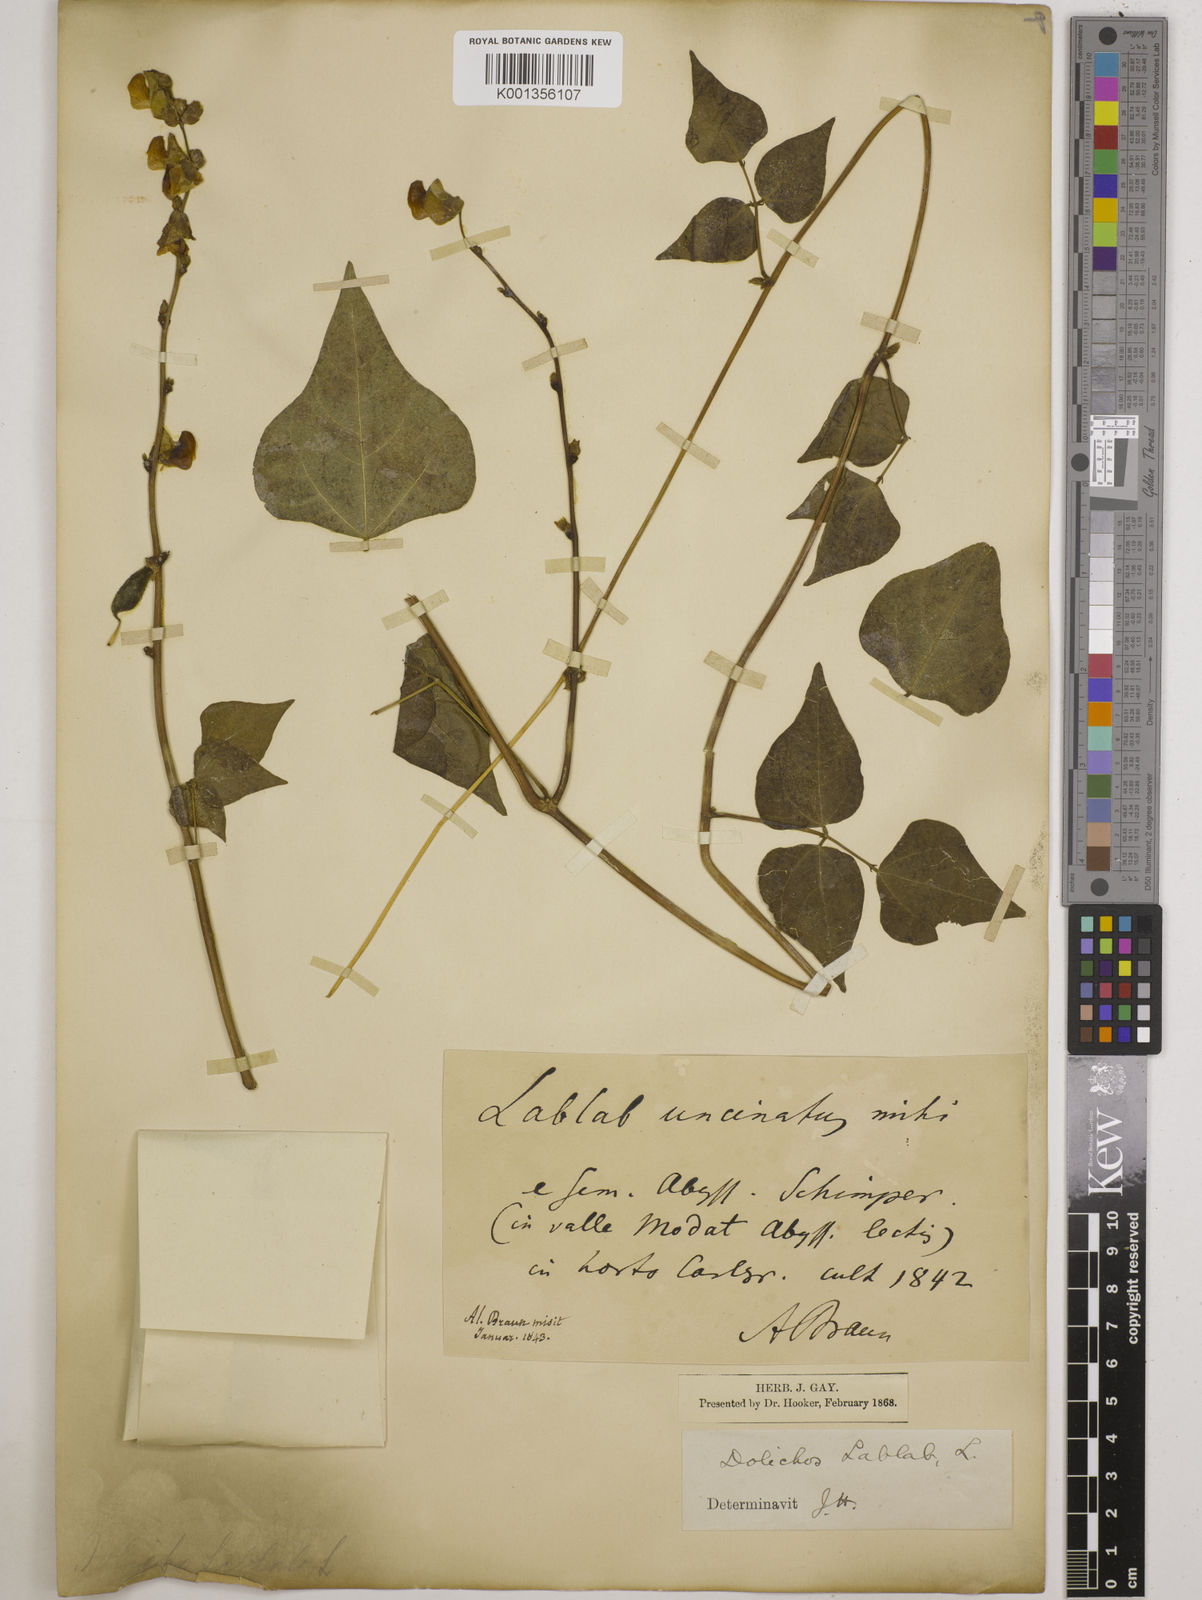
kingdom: Plantae
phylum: Tracheophyta
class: Magnoliopsida
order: Fabales
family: Fabaceae
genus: Lablab
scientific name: Lablab purpureus
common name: Lablab-bean
